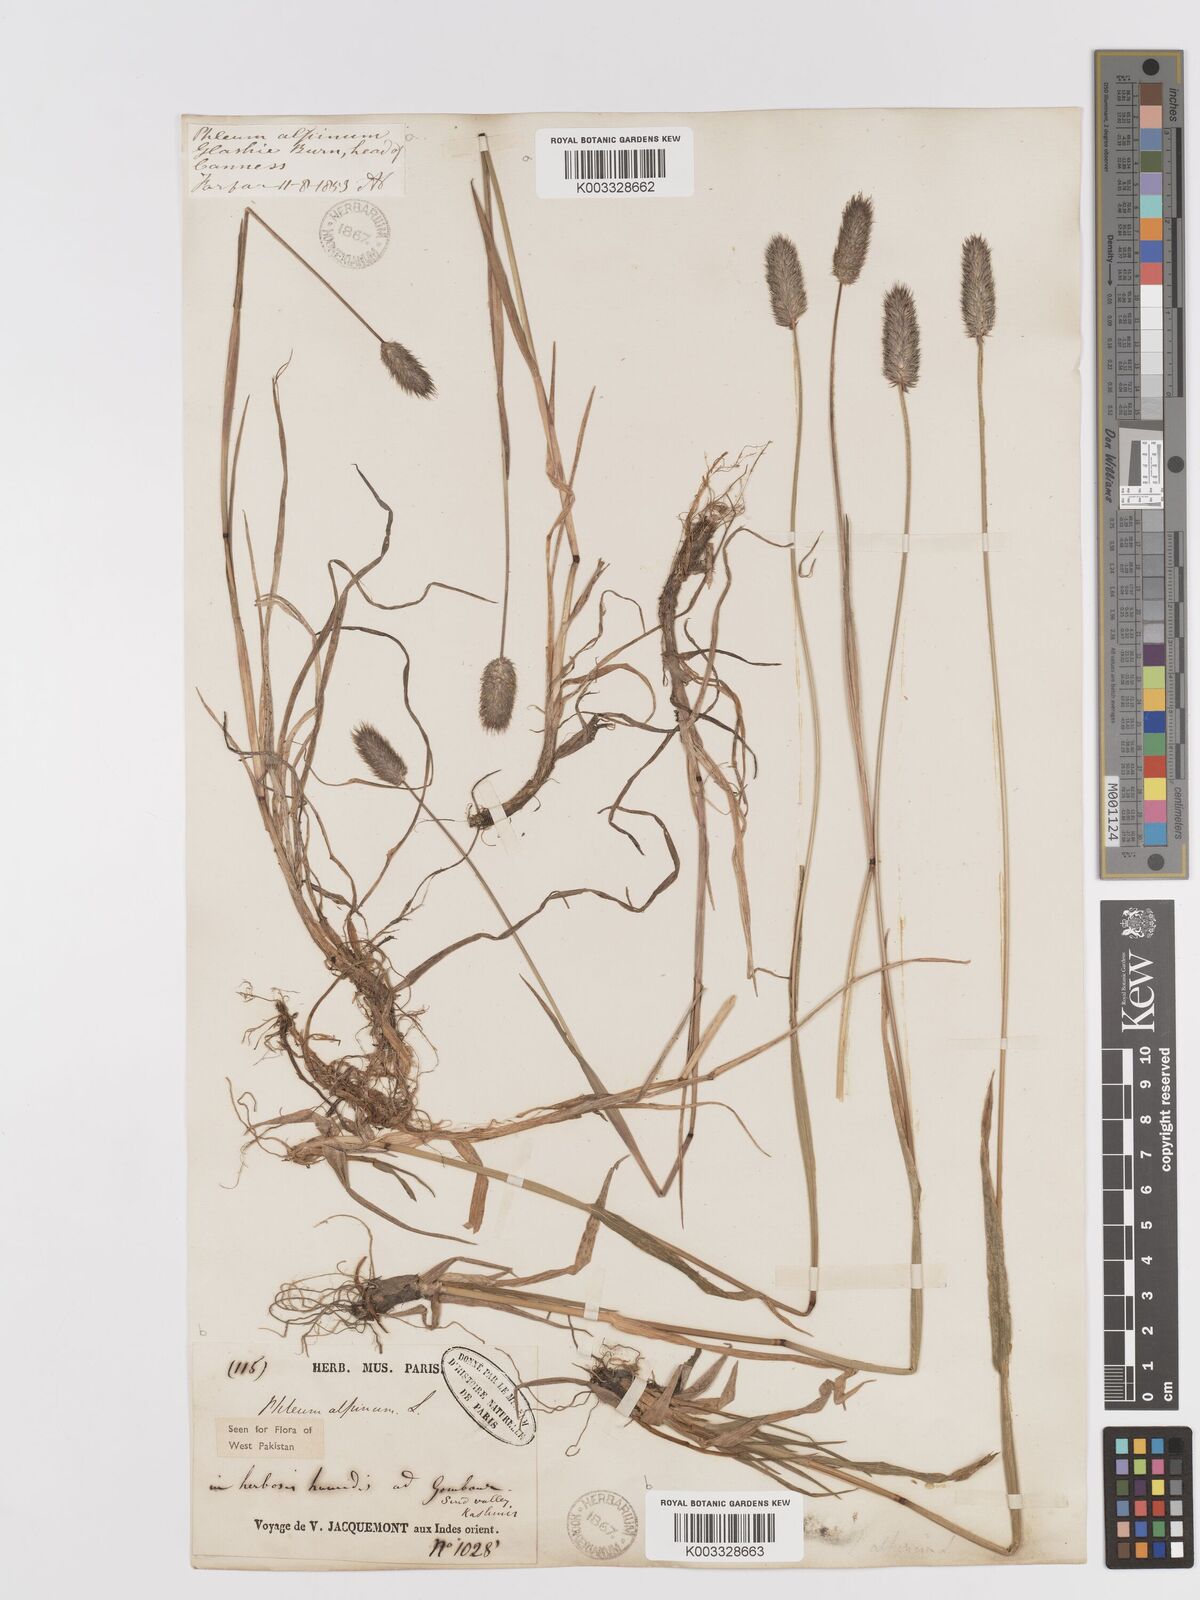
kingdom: Plantae
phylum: Tracheophyta
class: Liliopsida
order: Poales
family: Poaceae
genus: Phleum
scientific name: Phleum alpinum
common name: Alpine cat's-tail
